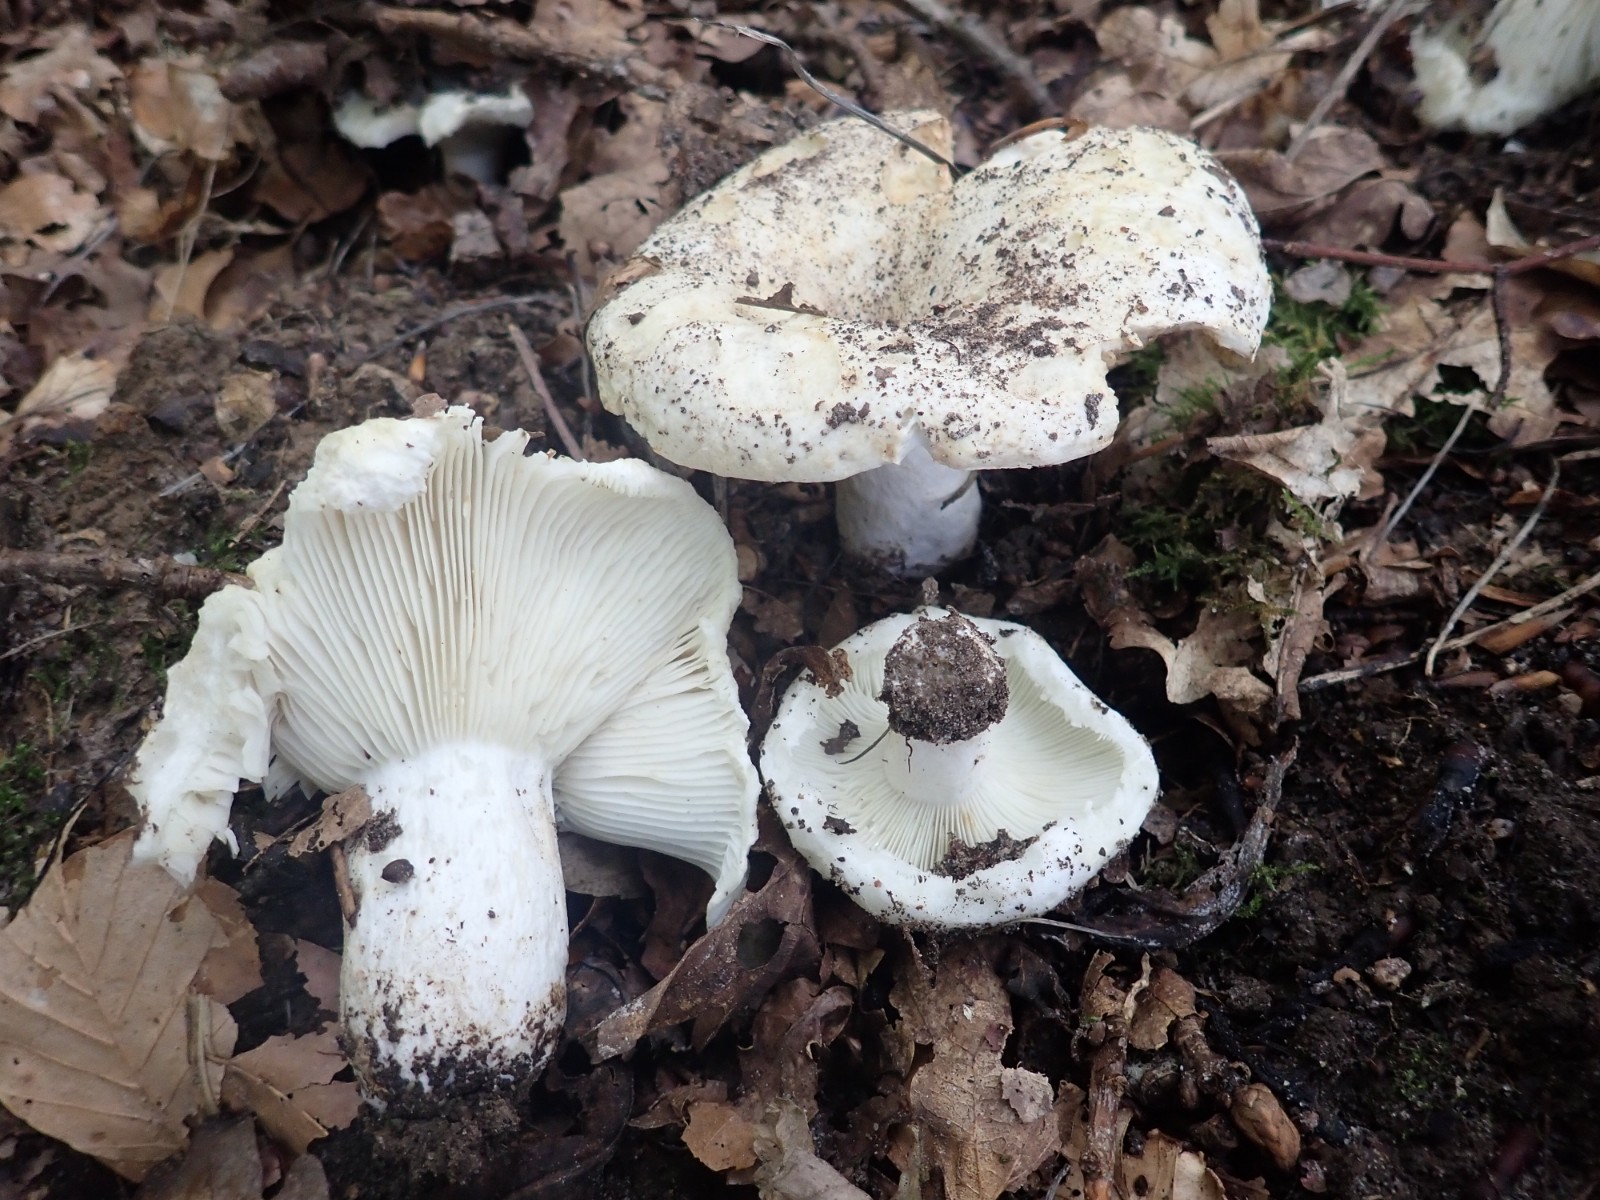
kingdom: Fungi
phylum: Basidiomycota
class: Agaricomycetes
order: Russulales
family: Russulaceae
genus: Russula
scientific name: Russula densifolia
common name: tætbladet skørhat
